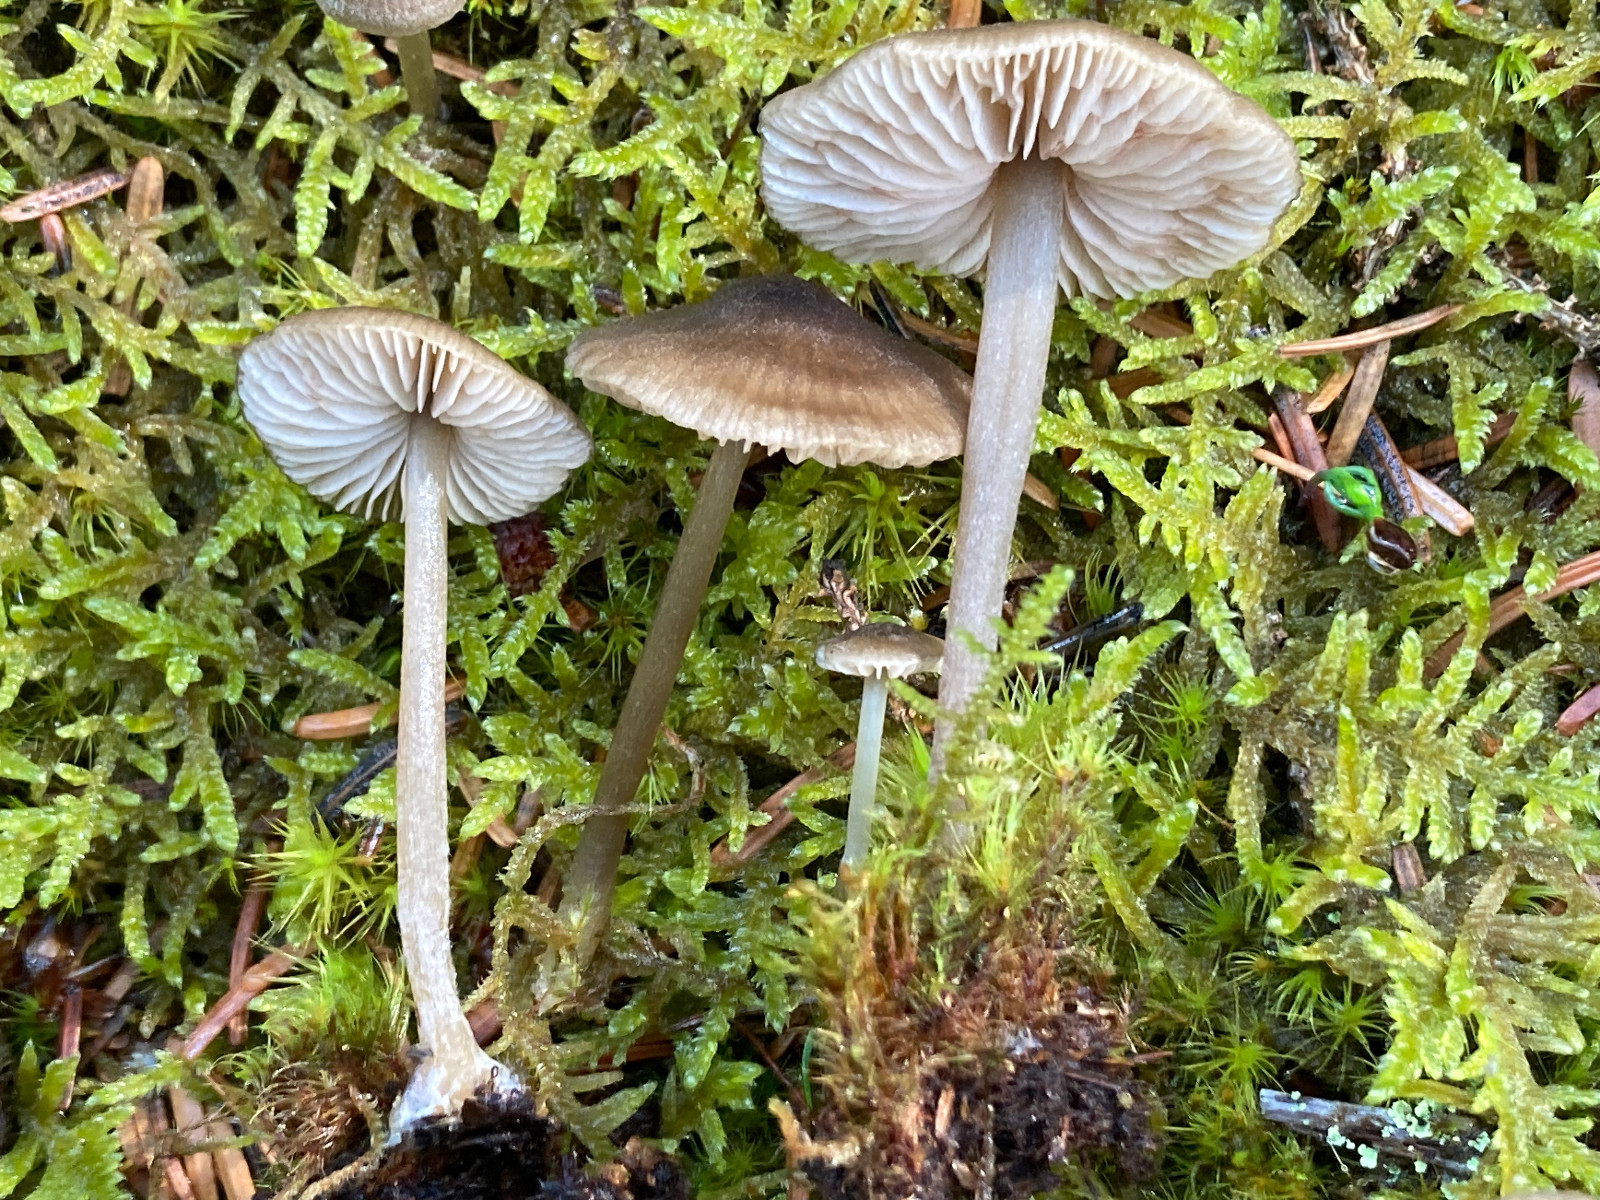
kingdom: Fungi
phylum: Basidiomycota
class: Agaricomycetes
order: Agaricales
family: Entolomataceae
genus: Entoloma
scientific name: Entoloma fernandae
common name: filtet rødblad
